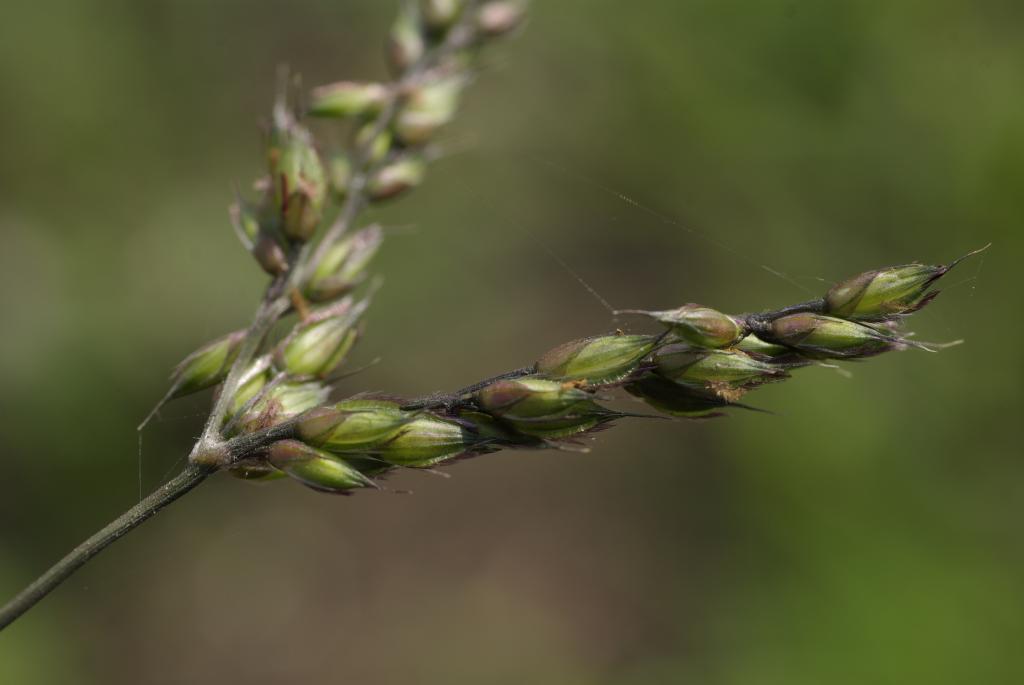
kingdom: Plantae
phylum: Tracheophyta
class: Liliopsida
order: Poales
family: Poaceae
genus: Alloteropsis
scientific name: Alloteropsis semialata
